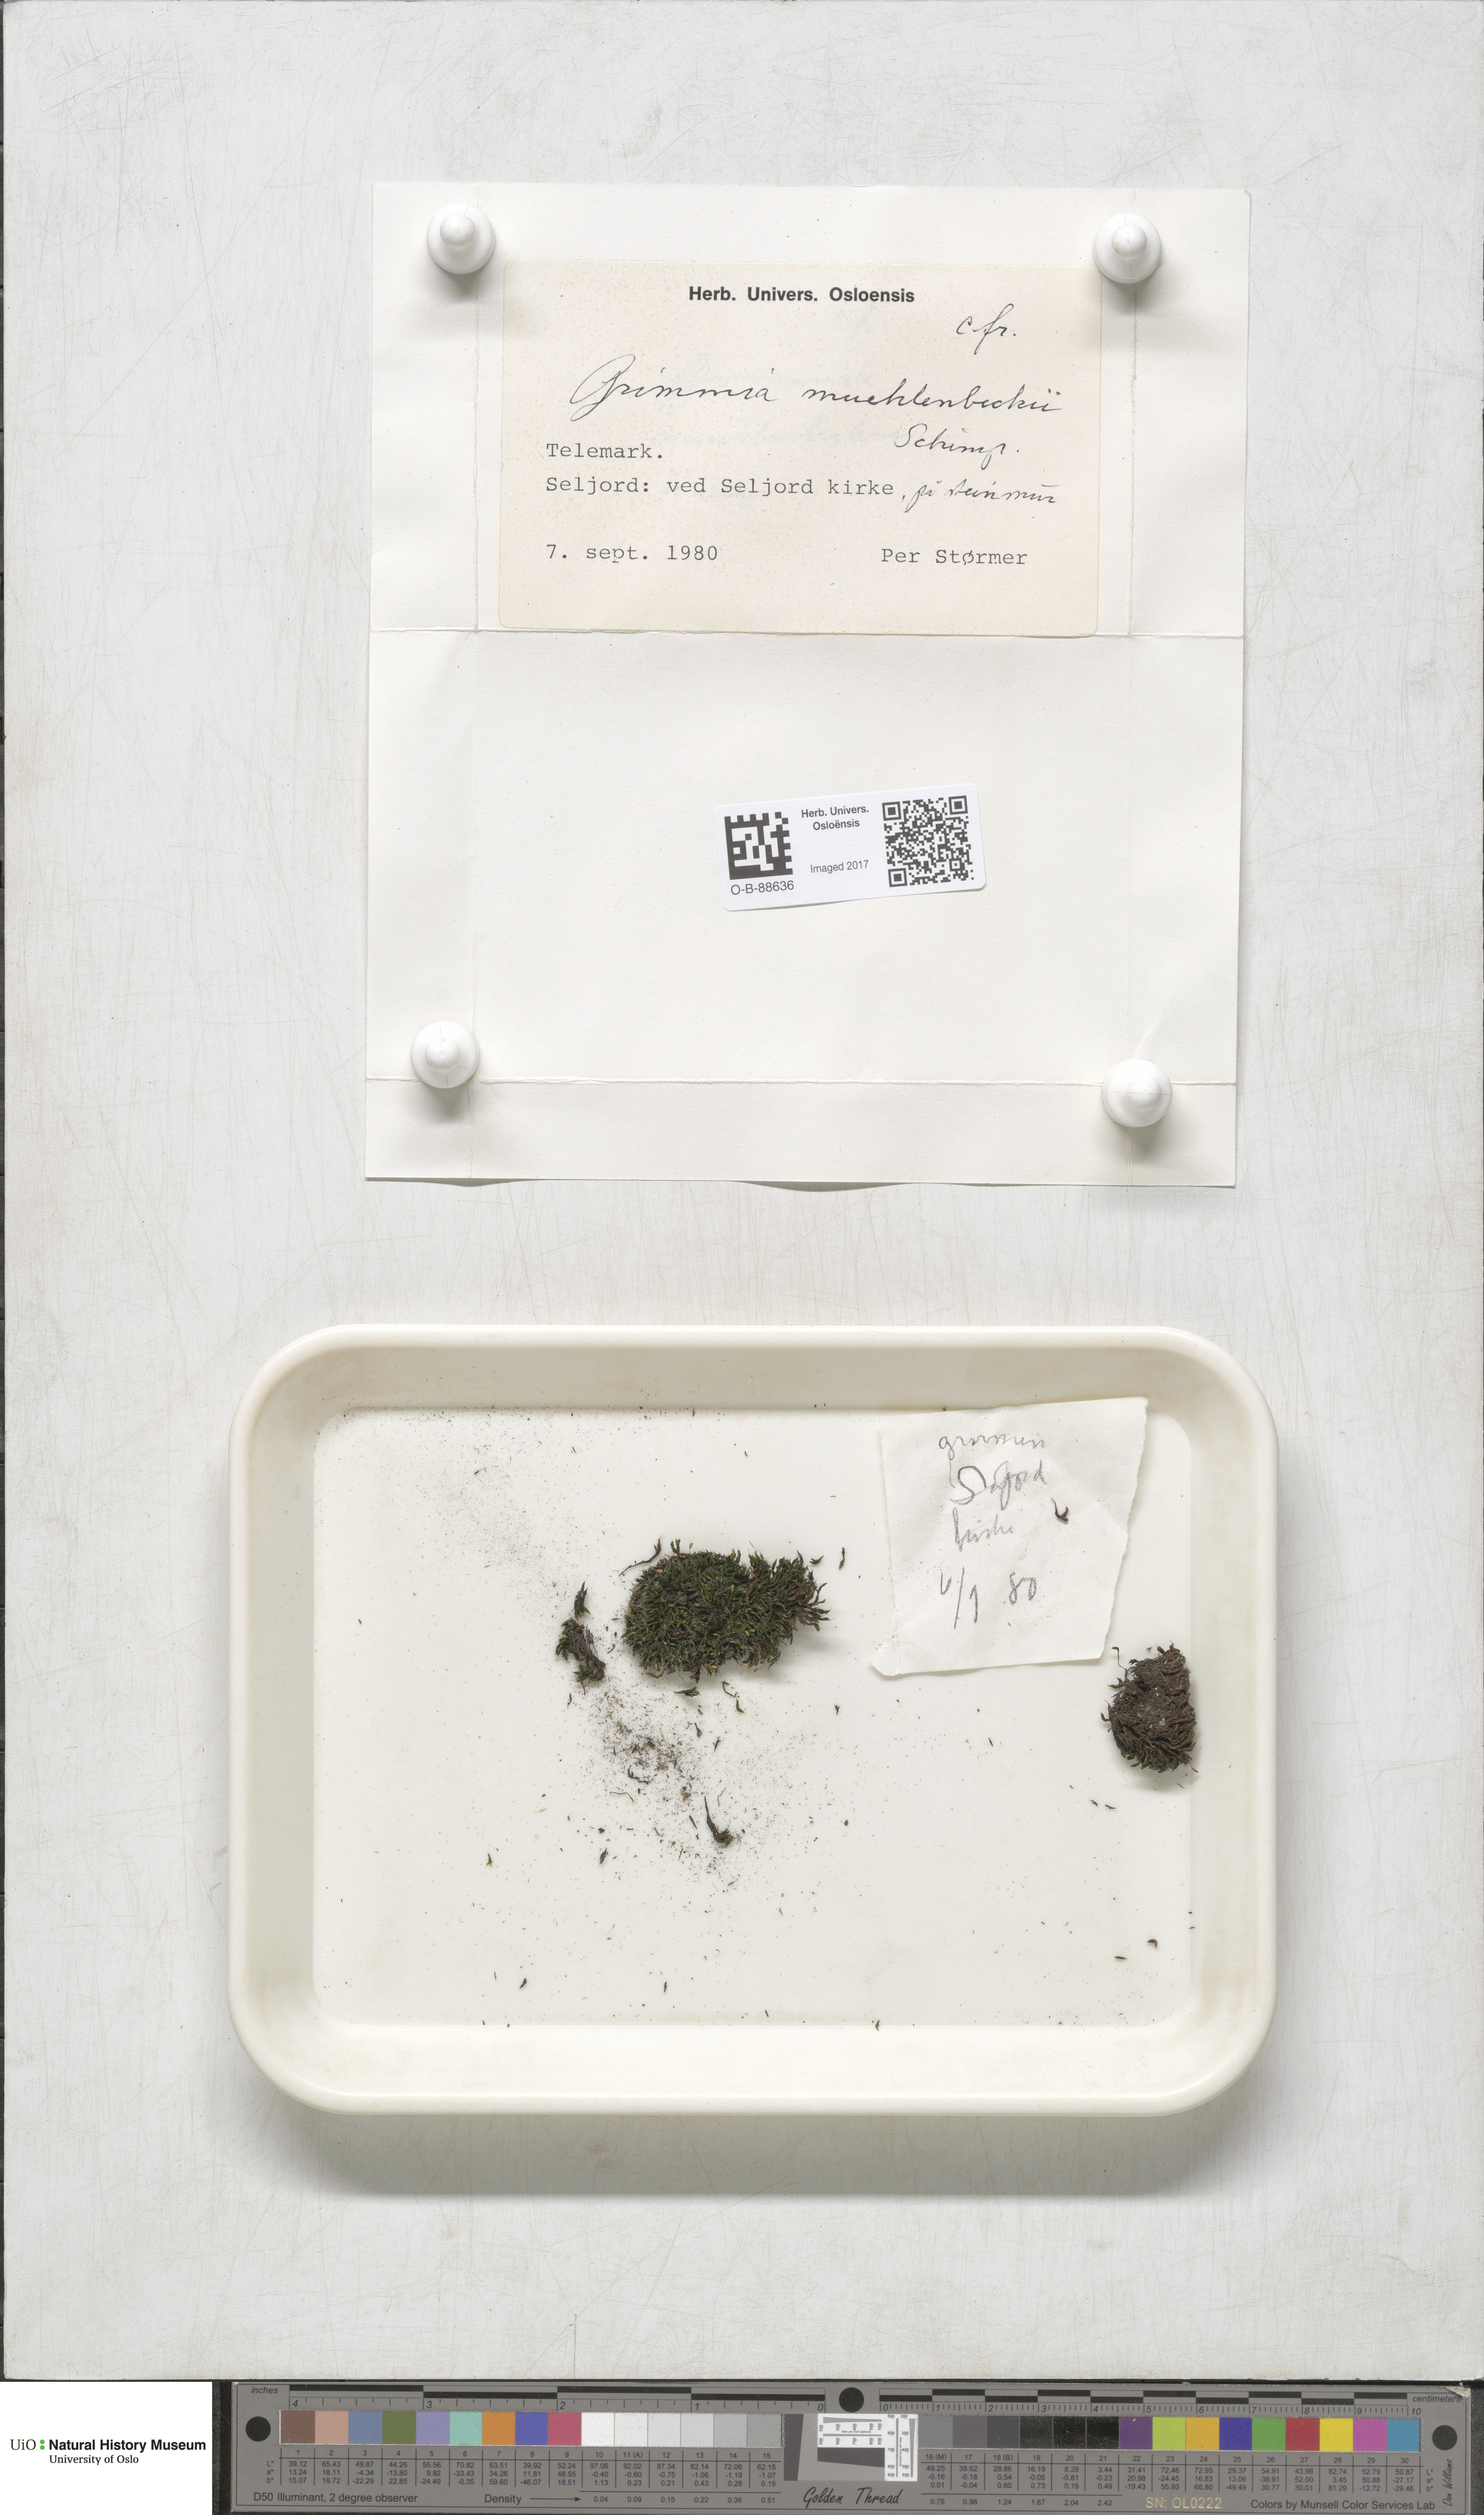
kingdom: Plantae
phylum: Bryophyta
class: Bryopsida
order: Grimmiales
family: Grimmiaceae
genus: Grimmia
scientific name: Grimmia muehlenbeckii
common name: Muehlenbeck's grimmia
